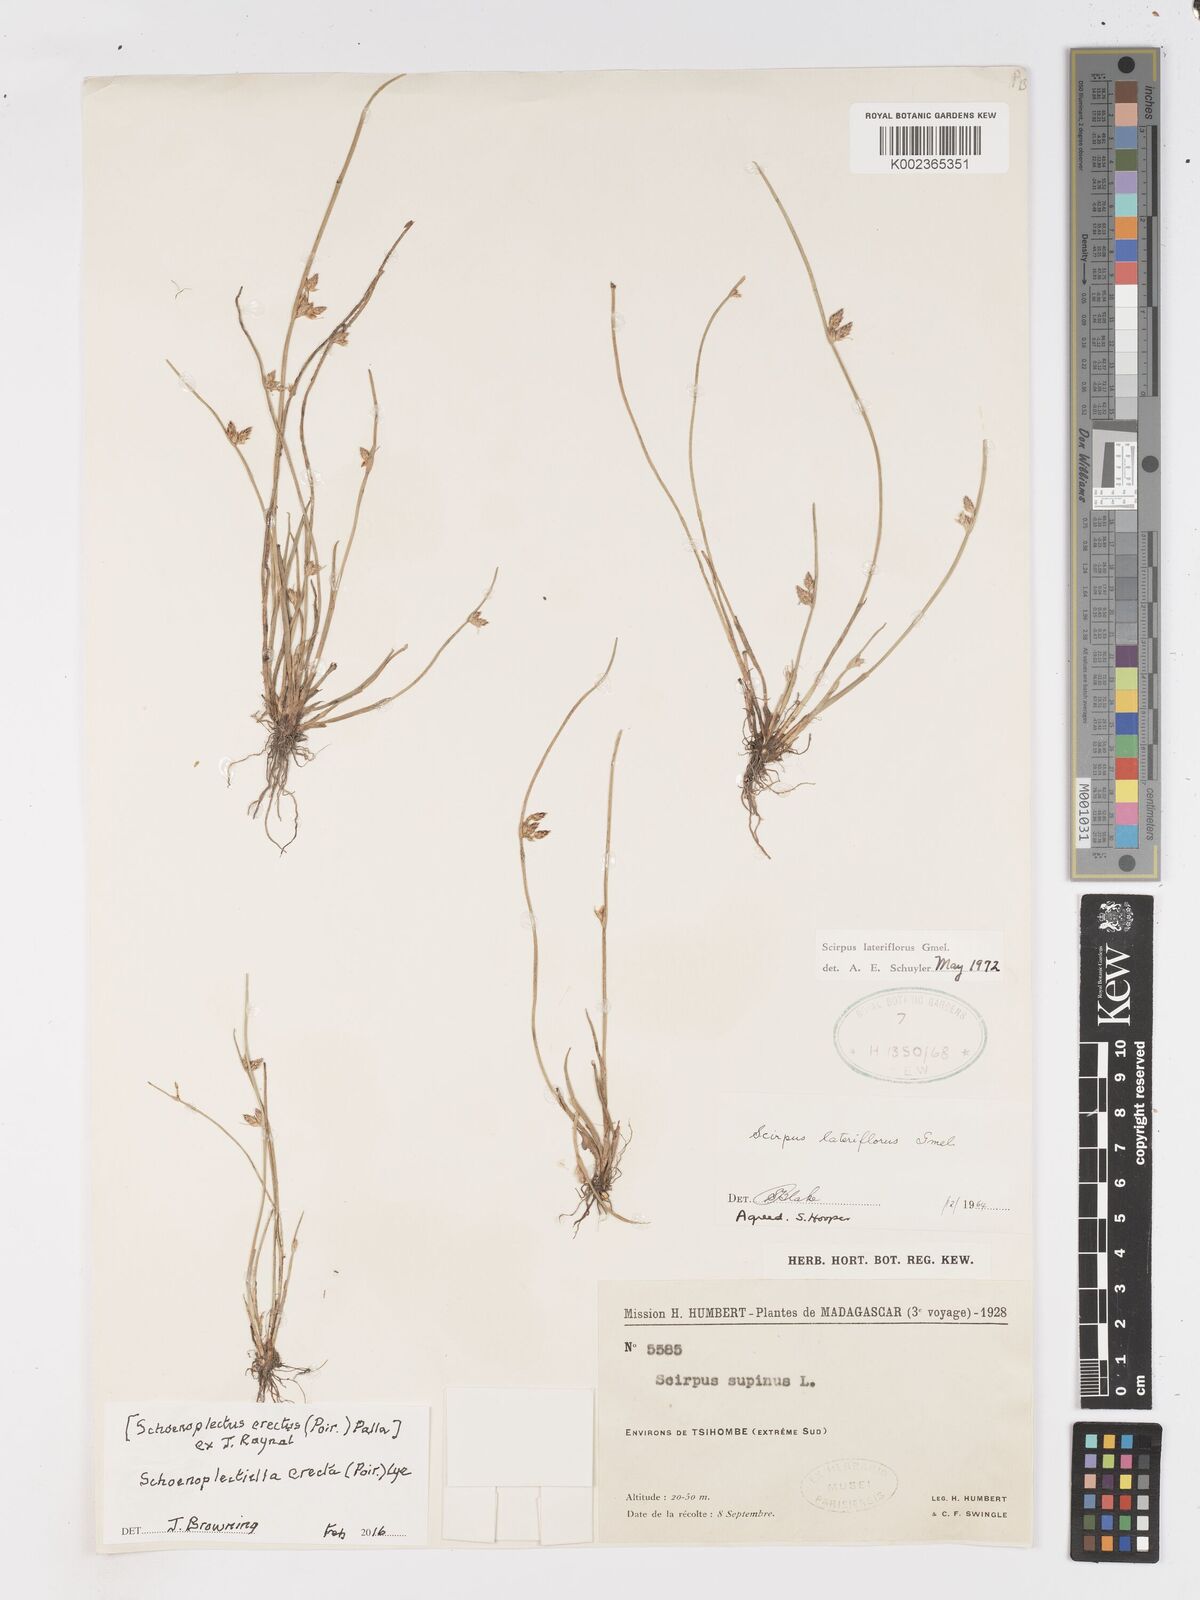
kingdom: Plantae
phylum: Tracheophyta
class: Liliopsida
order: Poales
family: Cyperaceae
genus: Schoenoplectus
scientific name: Schoenoplectus
